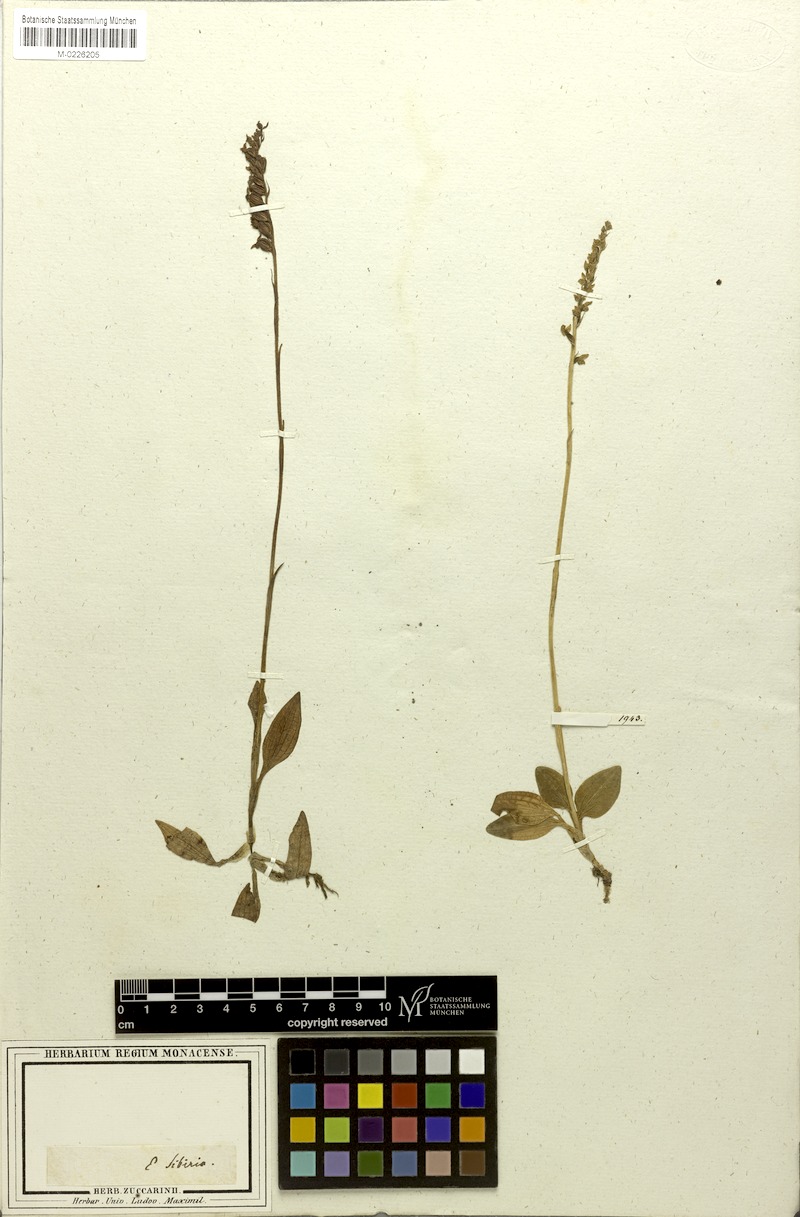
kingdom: Plantae
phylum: Tracheophyta
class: Liliopsida
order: Asparagales
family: Orchidaceae
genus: Goodyera
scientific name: Goodyera repens
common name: Creeping lady's-tresses
